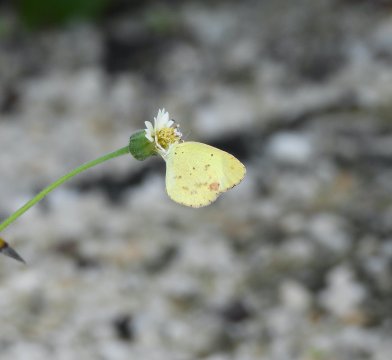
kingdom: Animalia
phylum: Arthropoda
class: Insecta
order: Lepidoptera
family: Pieridae
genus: Pyrisitia
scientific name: Pyrisitia nise
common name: Mimosa Yellow
